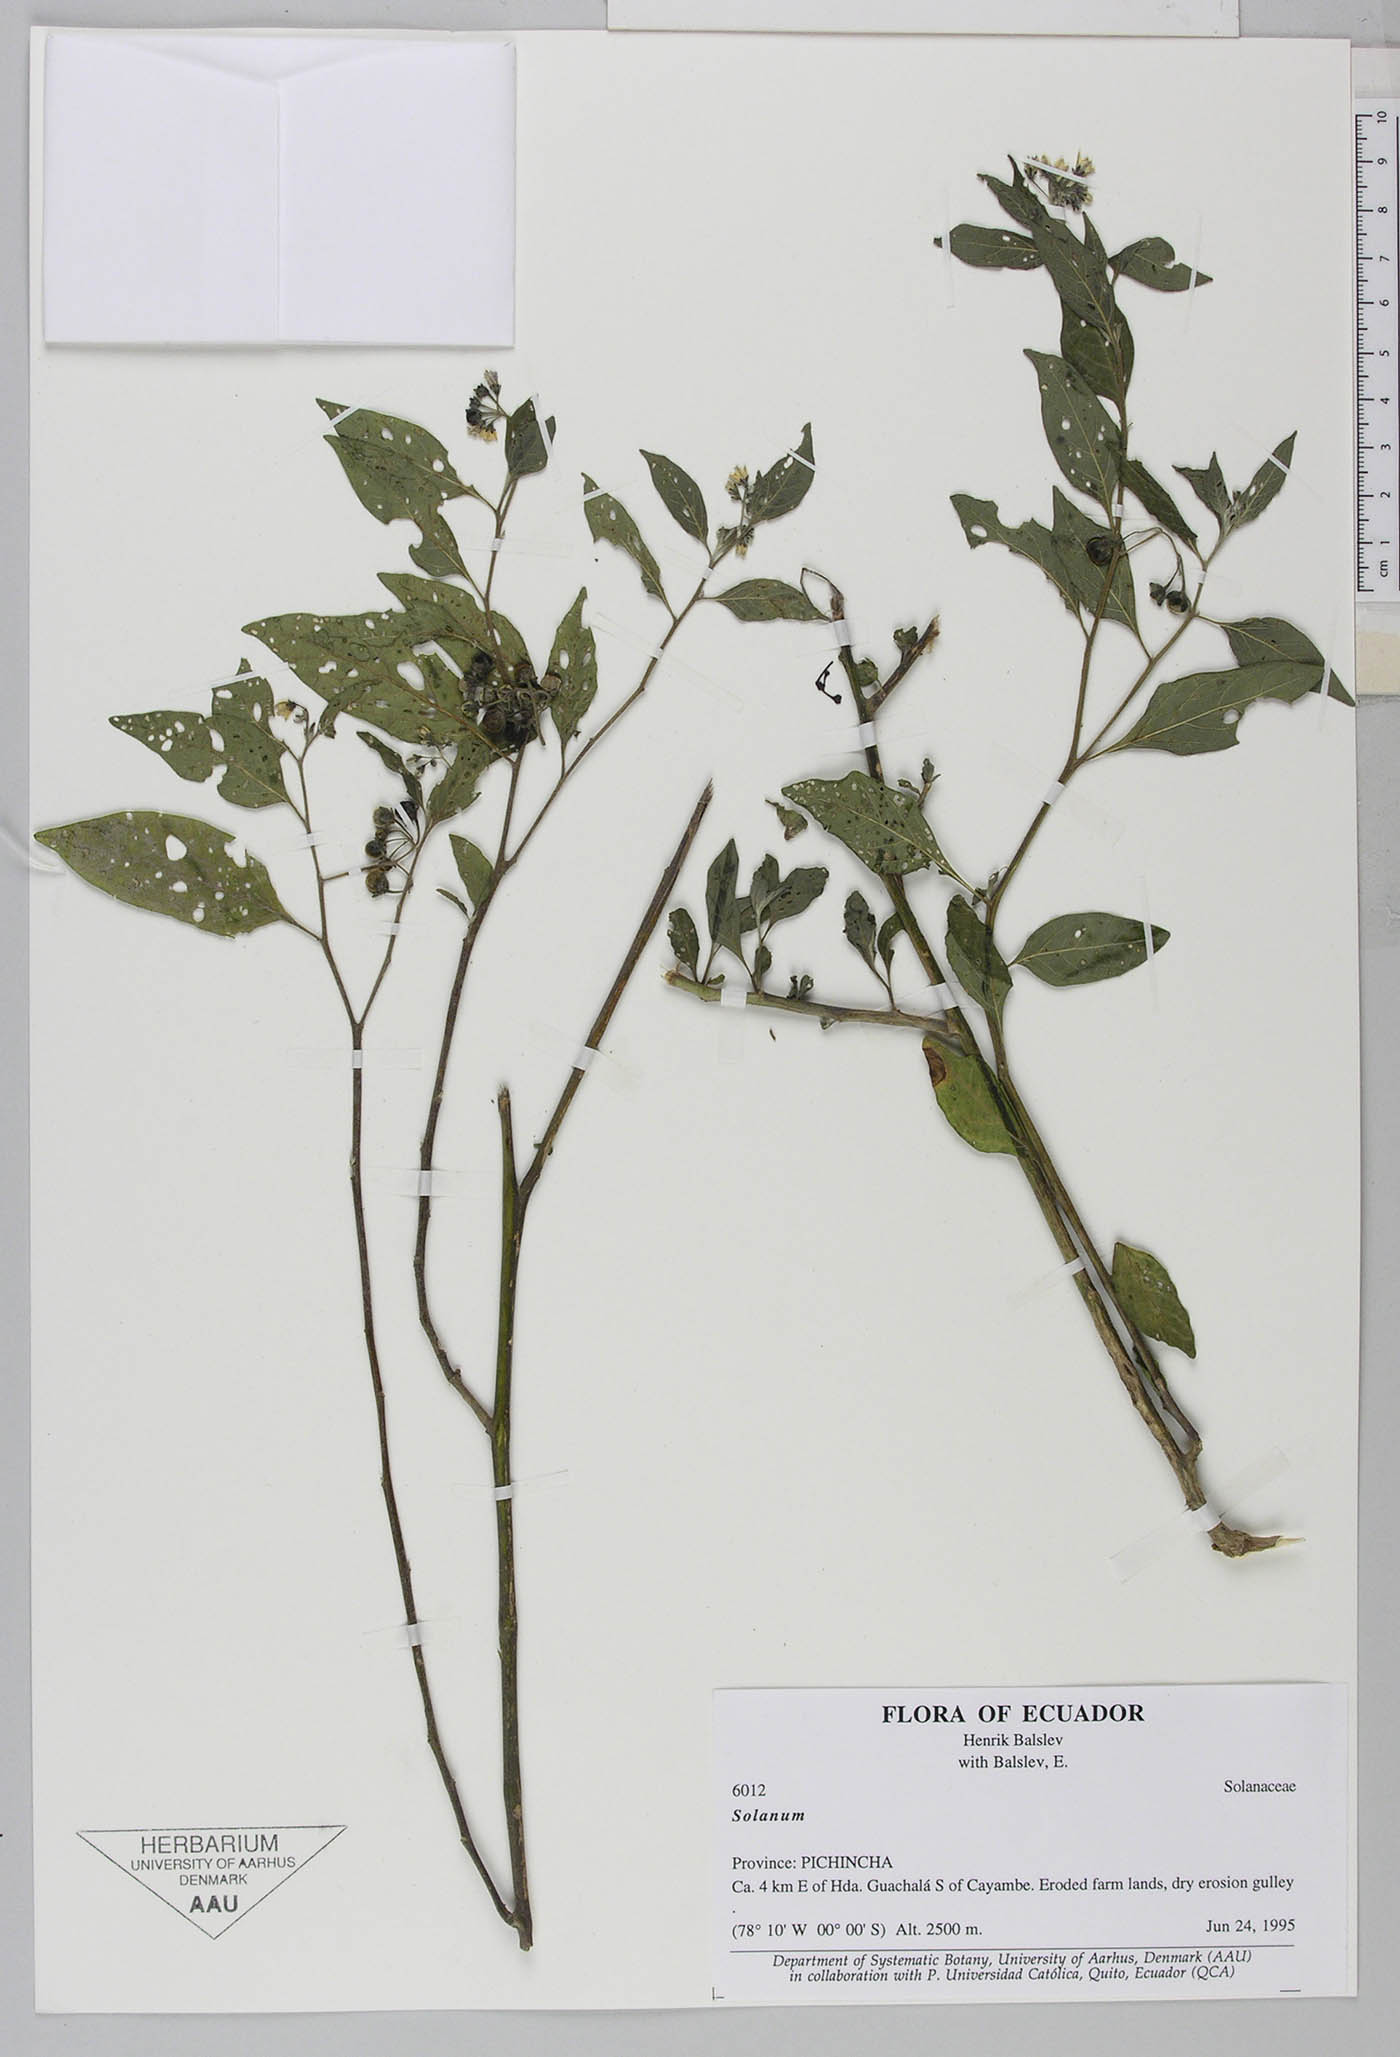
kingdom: Plantae
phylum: Tracheophyta
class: Magnoliopsida
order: Solanales
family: Solanaceae
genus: Solanum
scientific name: Solanum
